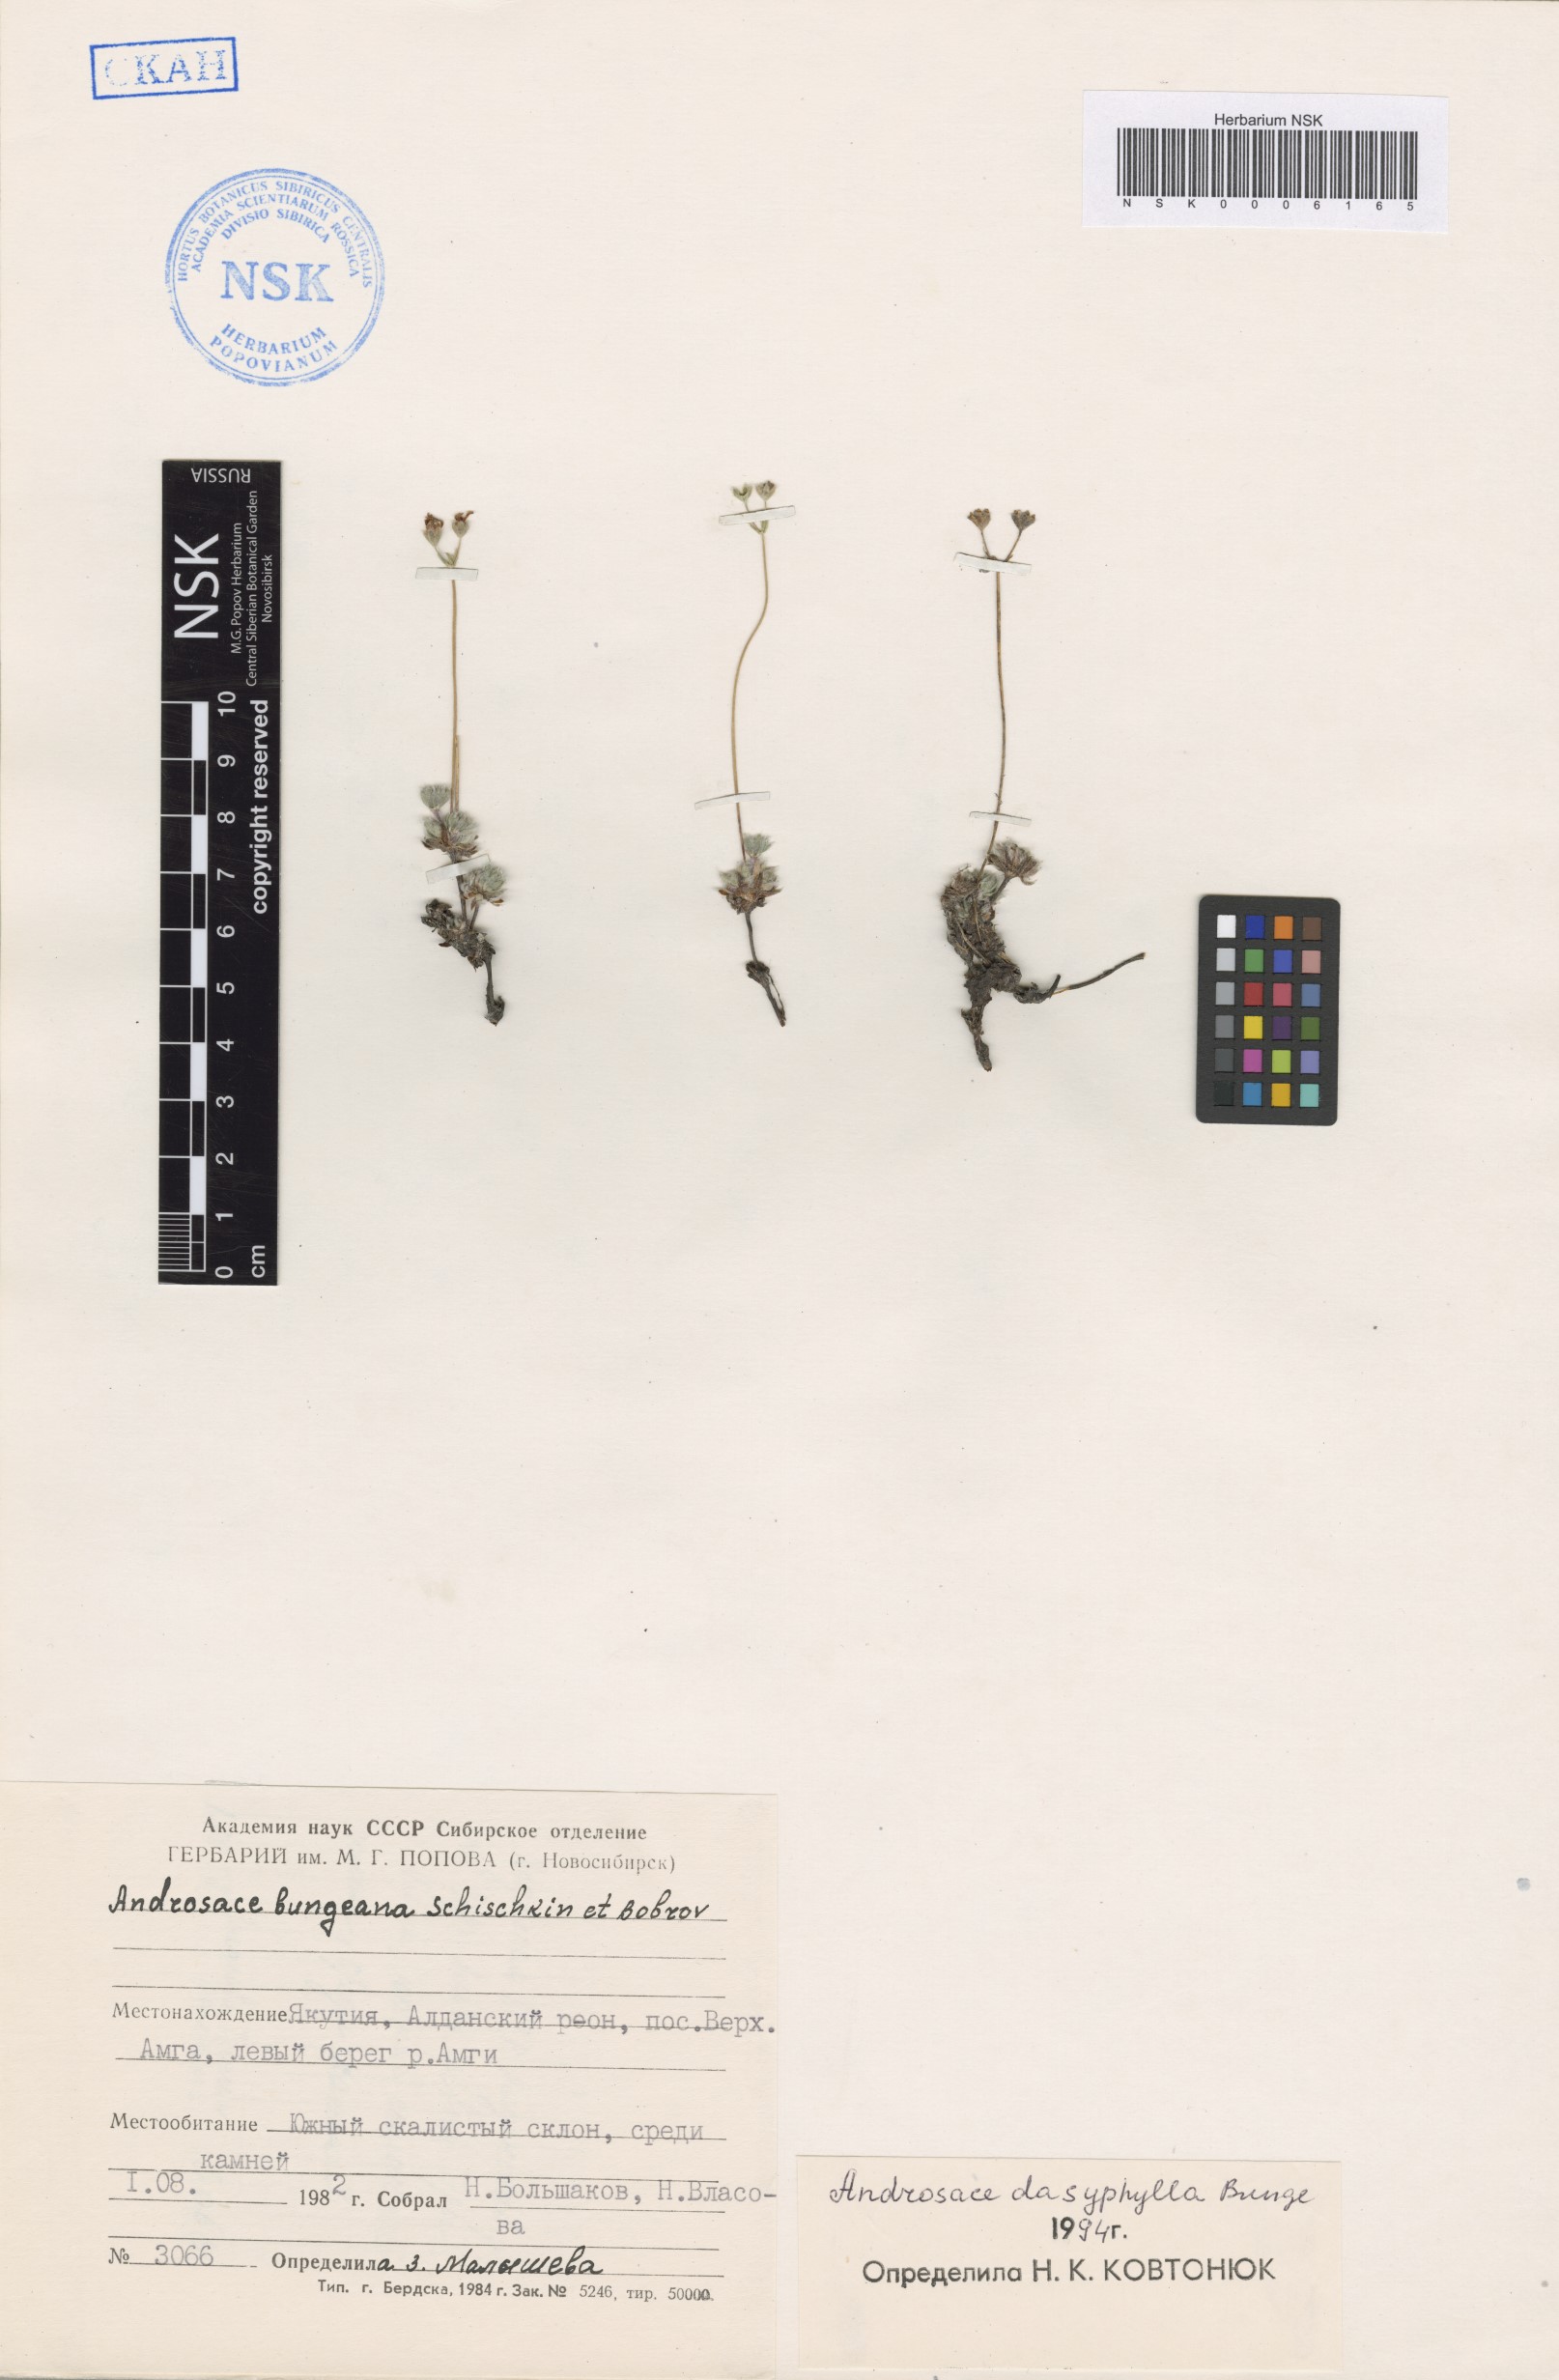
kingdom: Plantae
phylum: Tracheophyta
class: Magnoliopsida
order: Ericales
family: Primulaceae
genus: Androsace
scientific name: Androsace dasyphylla
